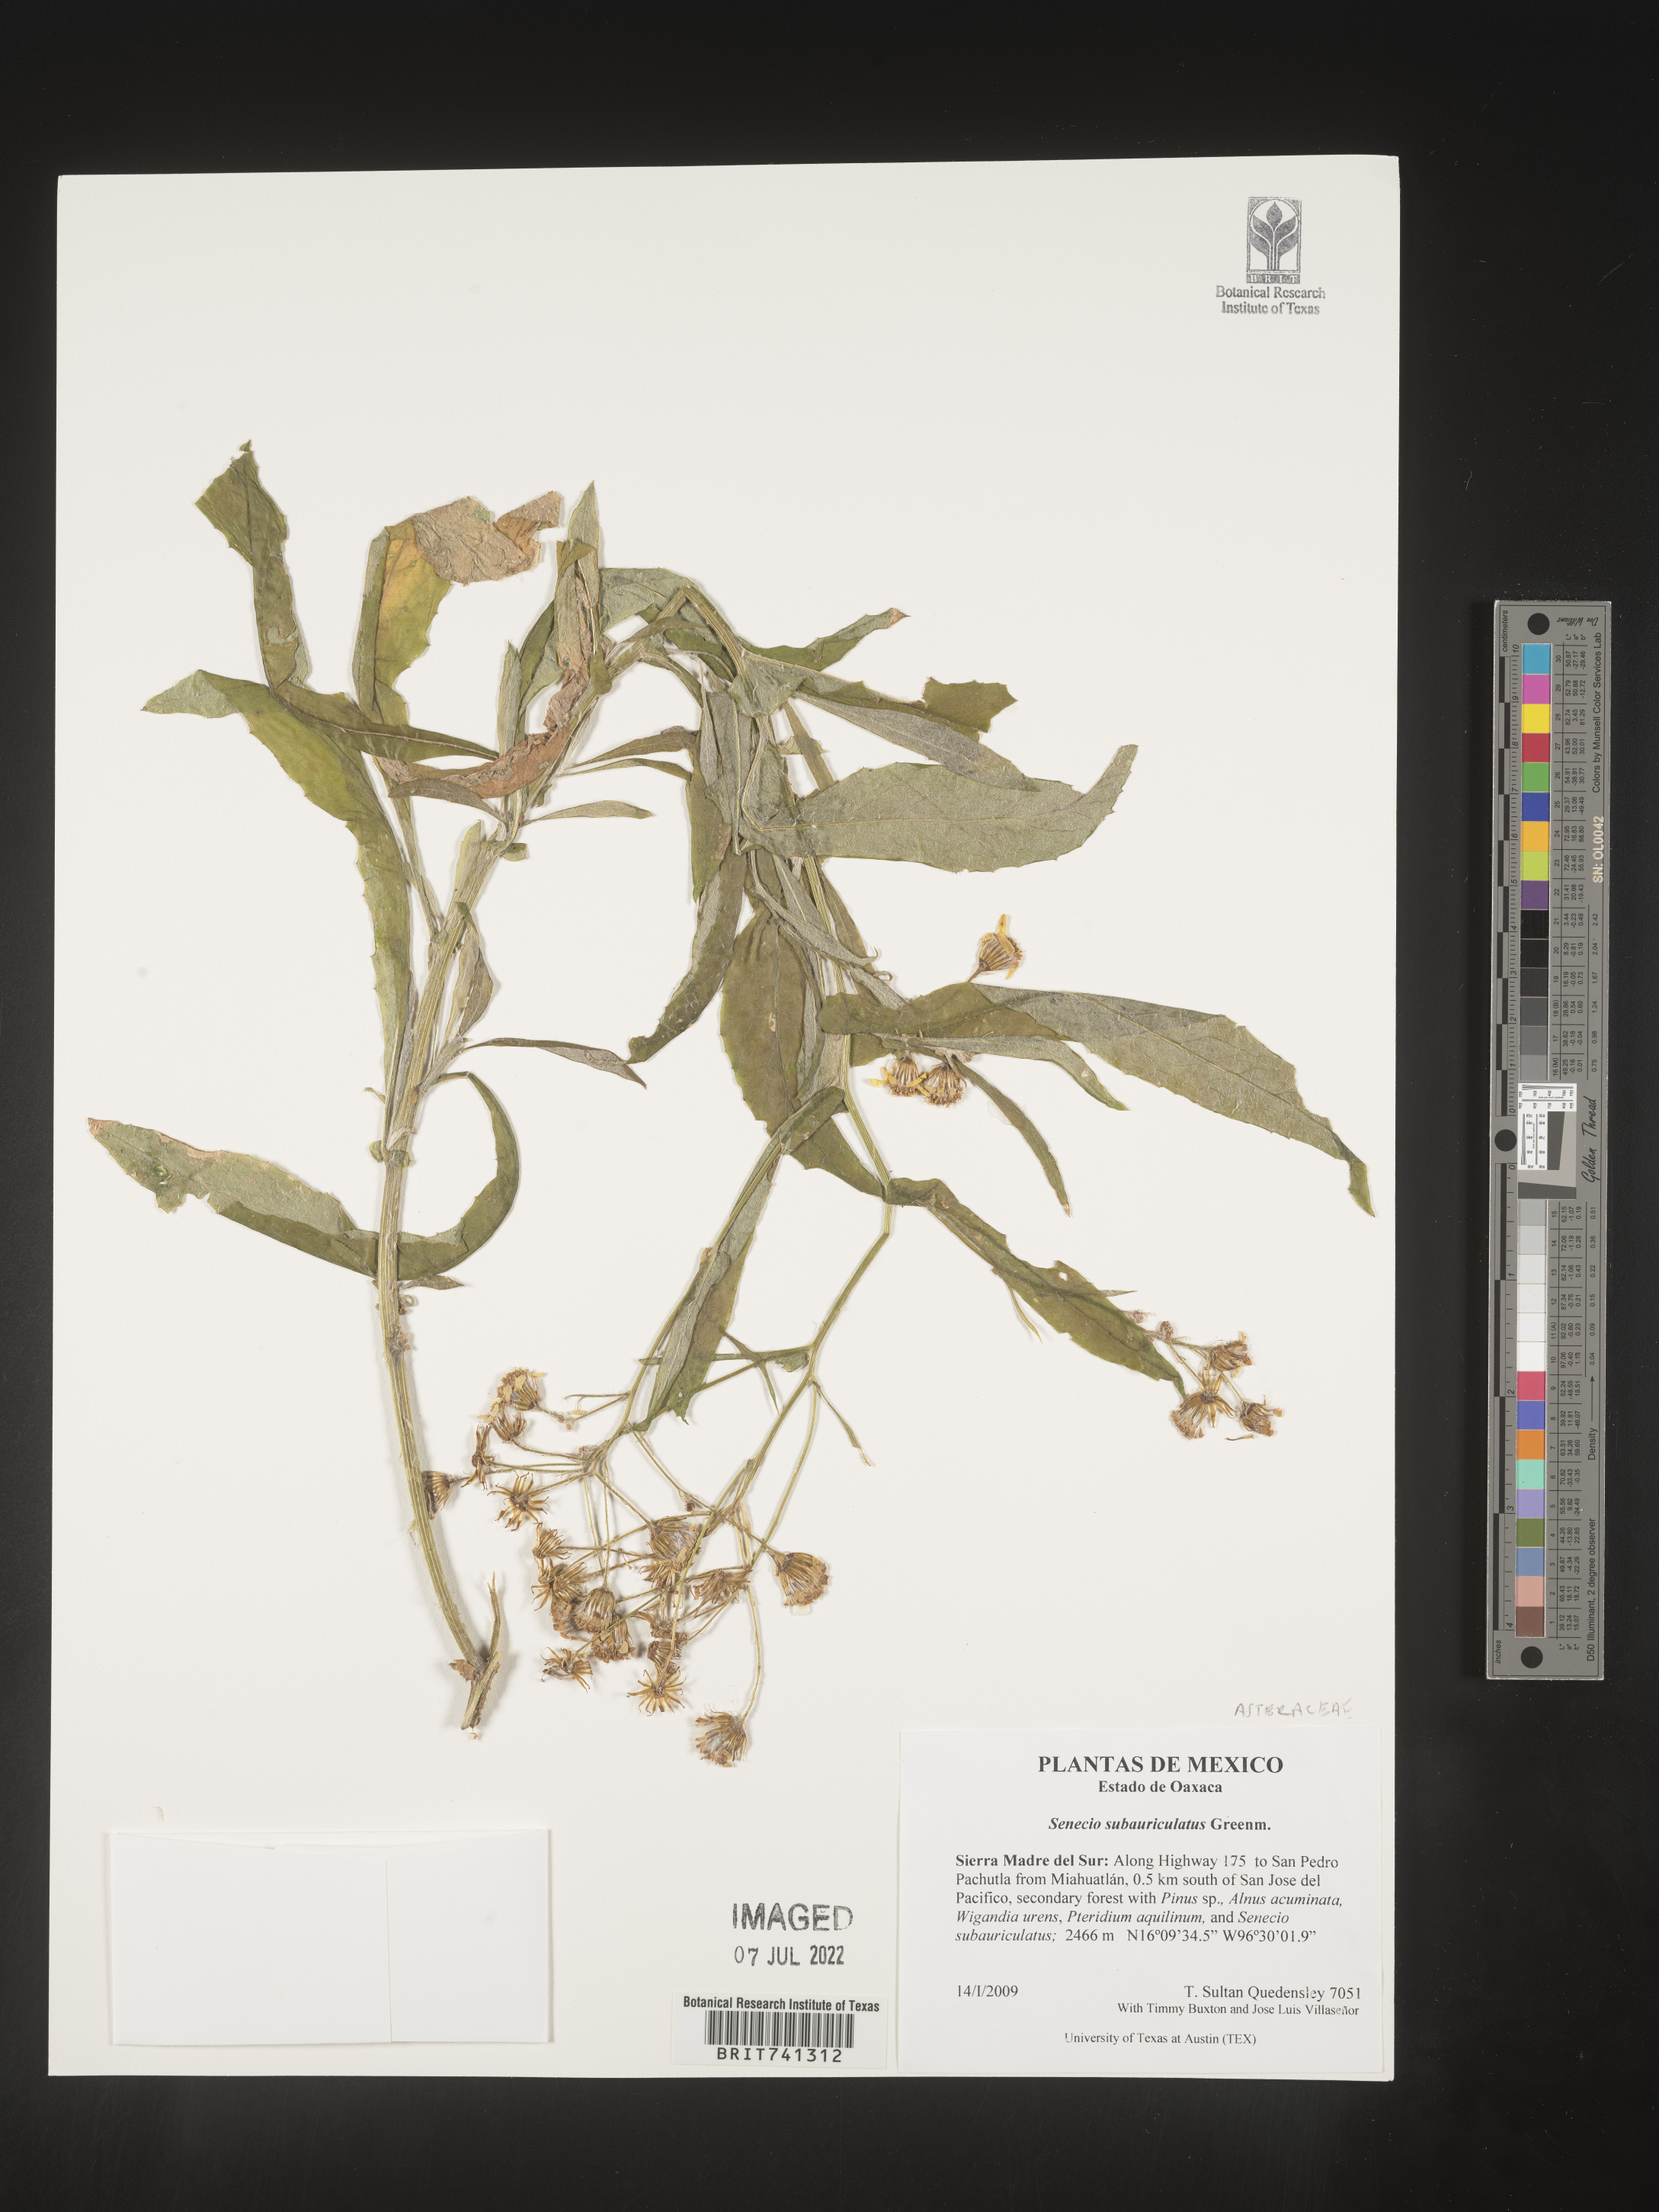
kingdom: Plantae
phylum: Tracheophyta
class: Magnoliopsida
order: Asterales
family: Asteraceae
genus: Senecio
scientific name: Senecio stoechadiformis
